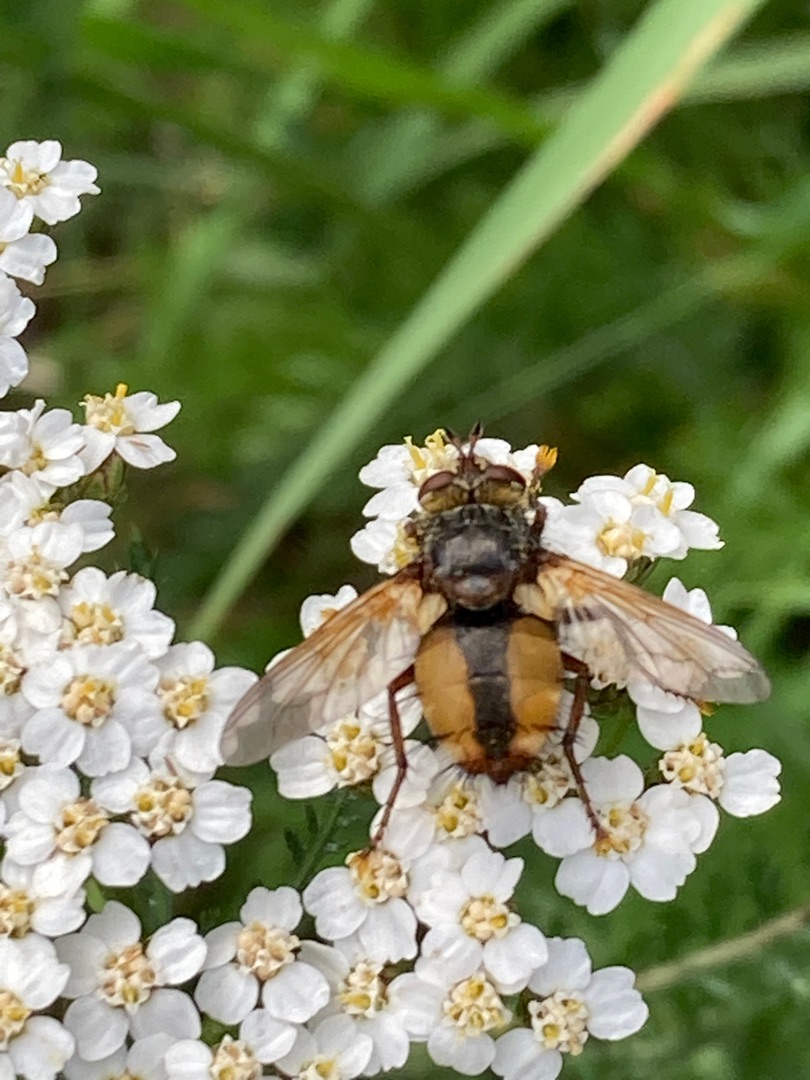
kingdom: Animalia
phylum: Arthropoda
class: Insecta
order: Diptera
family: Tachinidae
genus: Tachina
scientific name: Tachina fera
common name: Mellemfluen oskar
